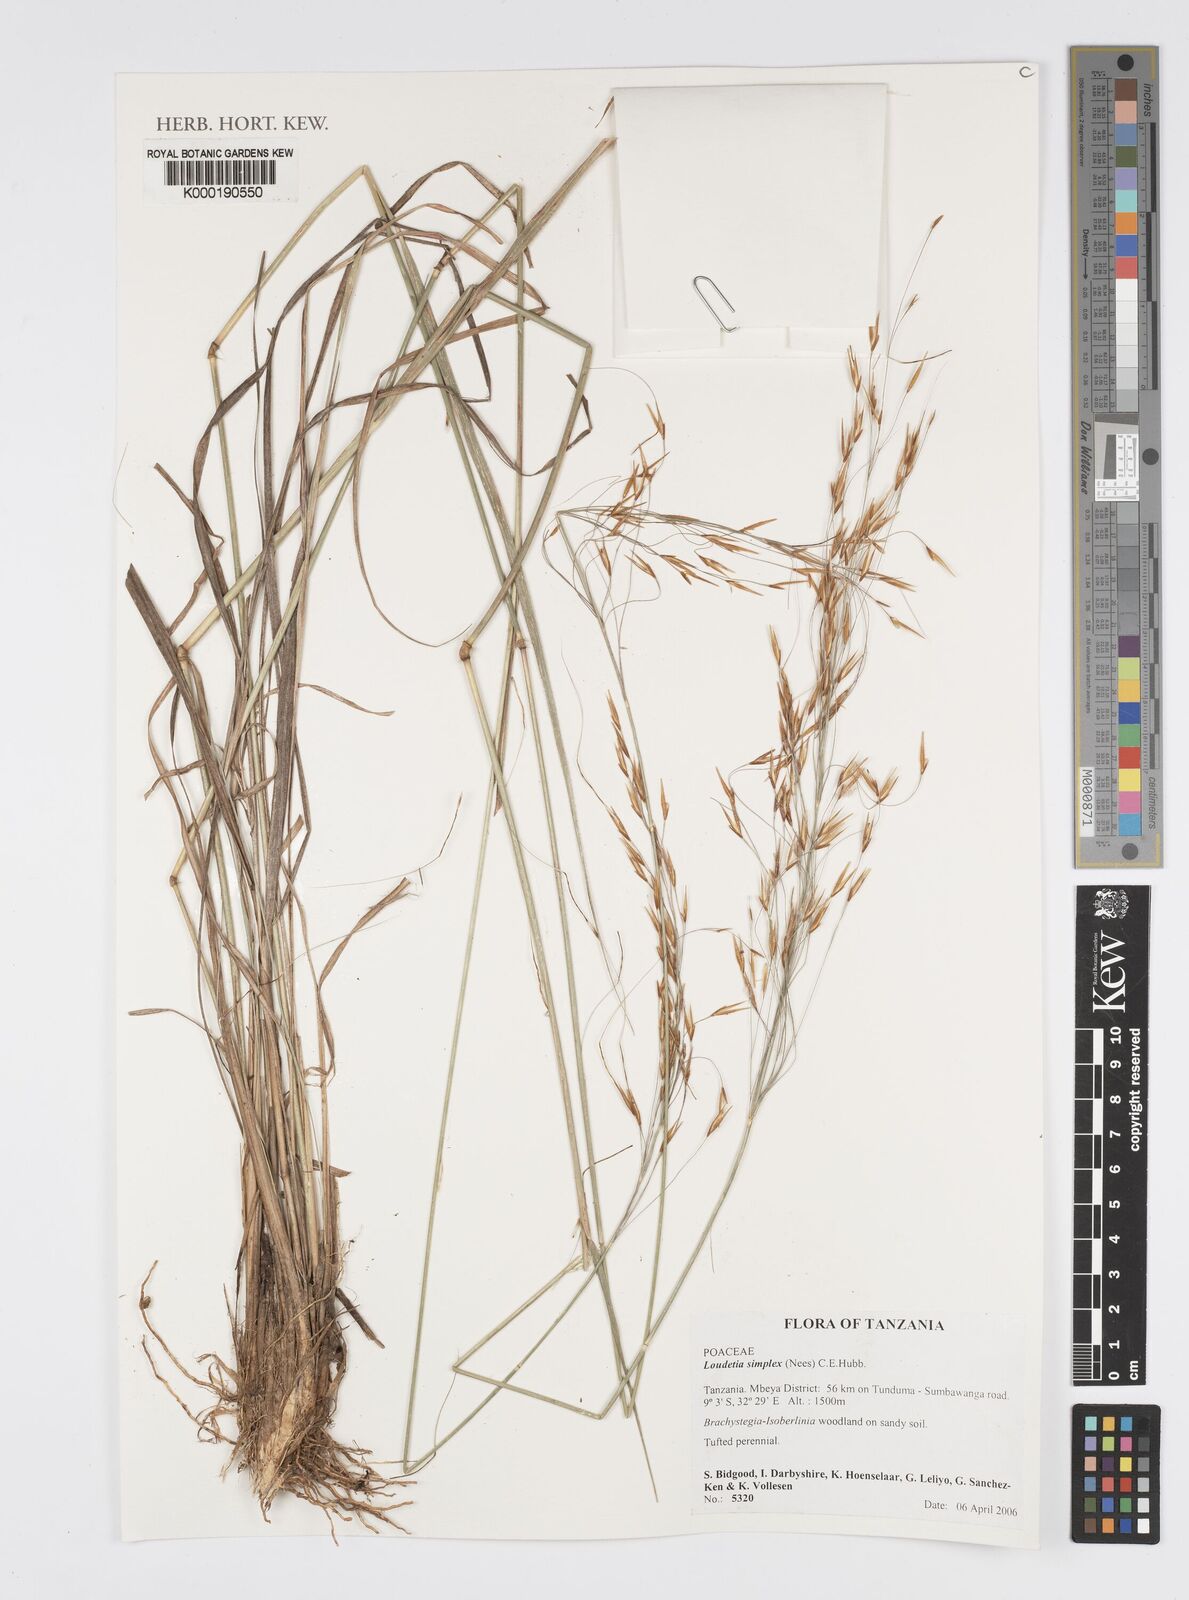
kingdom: Plantae
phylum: Tracheophyta
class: Liliopsida
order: Poales
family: Poaceae
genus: Loudetia
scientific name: Loudetia simplex
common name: Common russet grass
